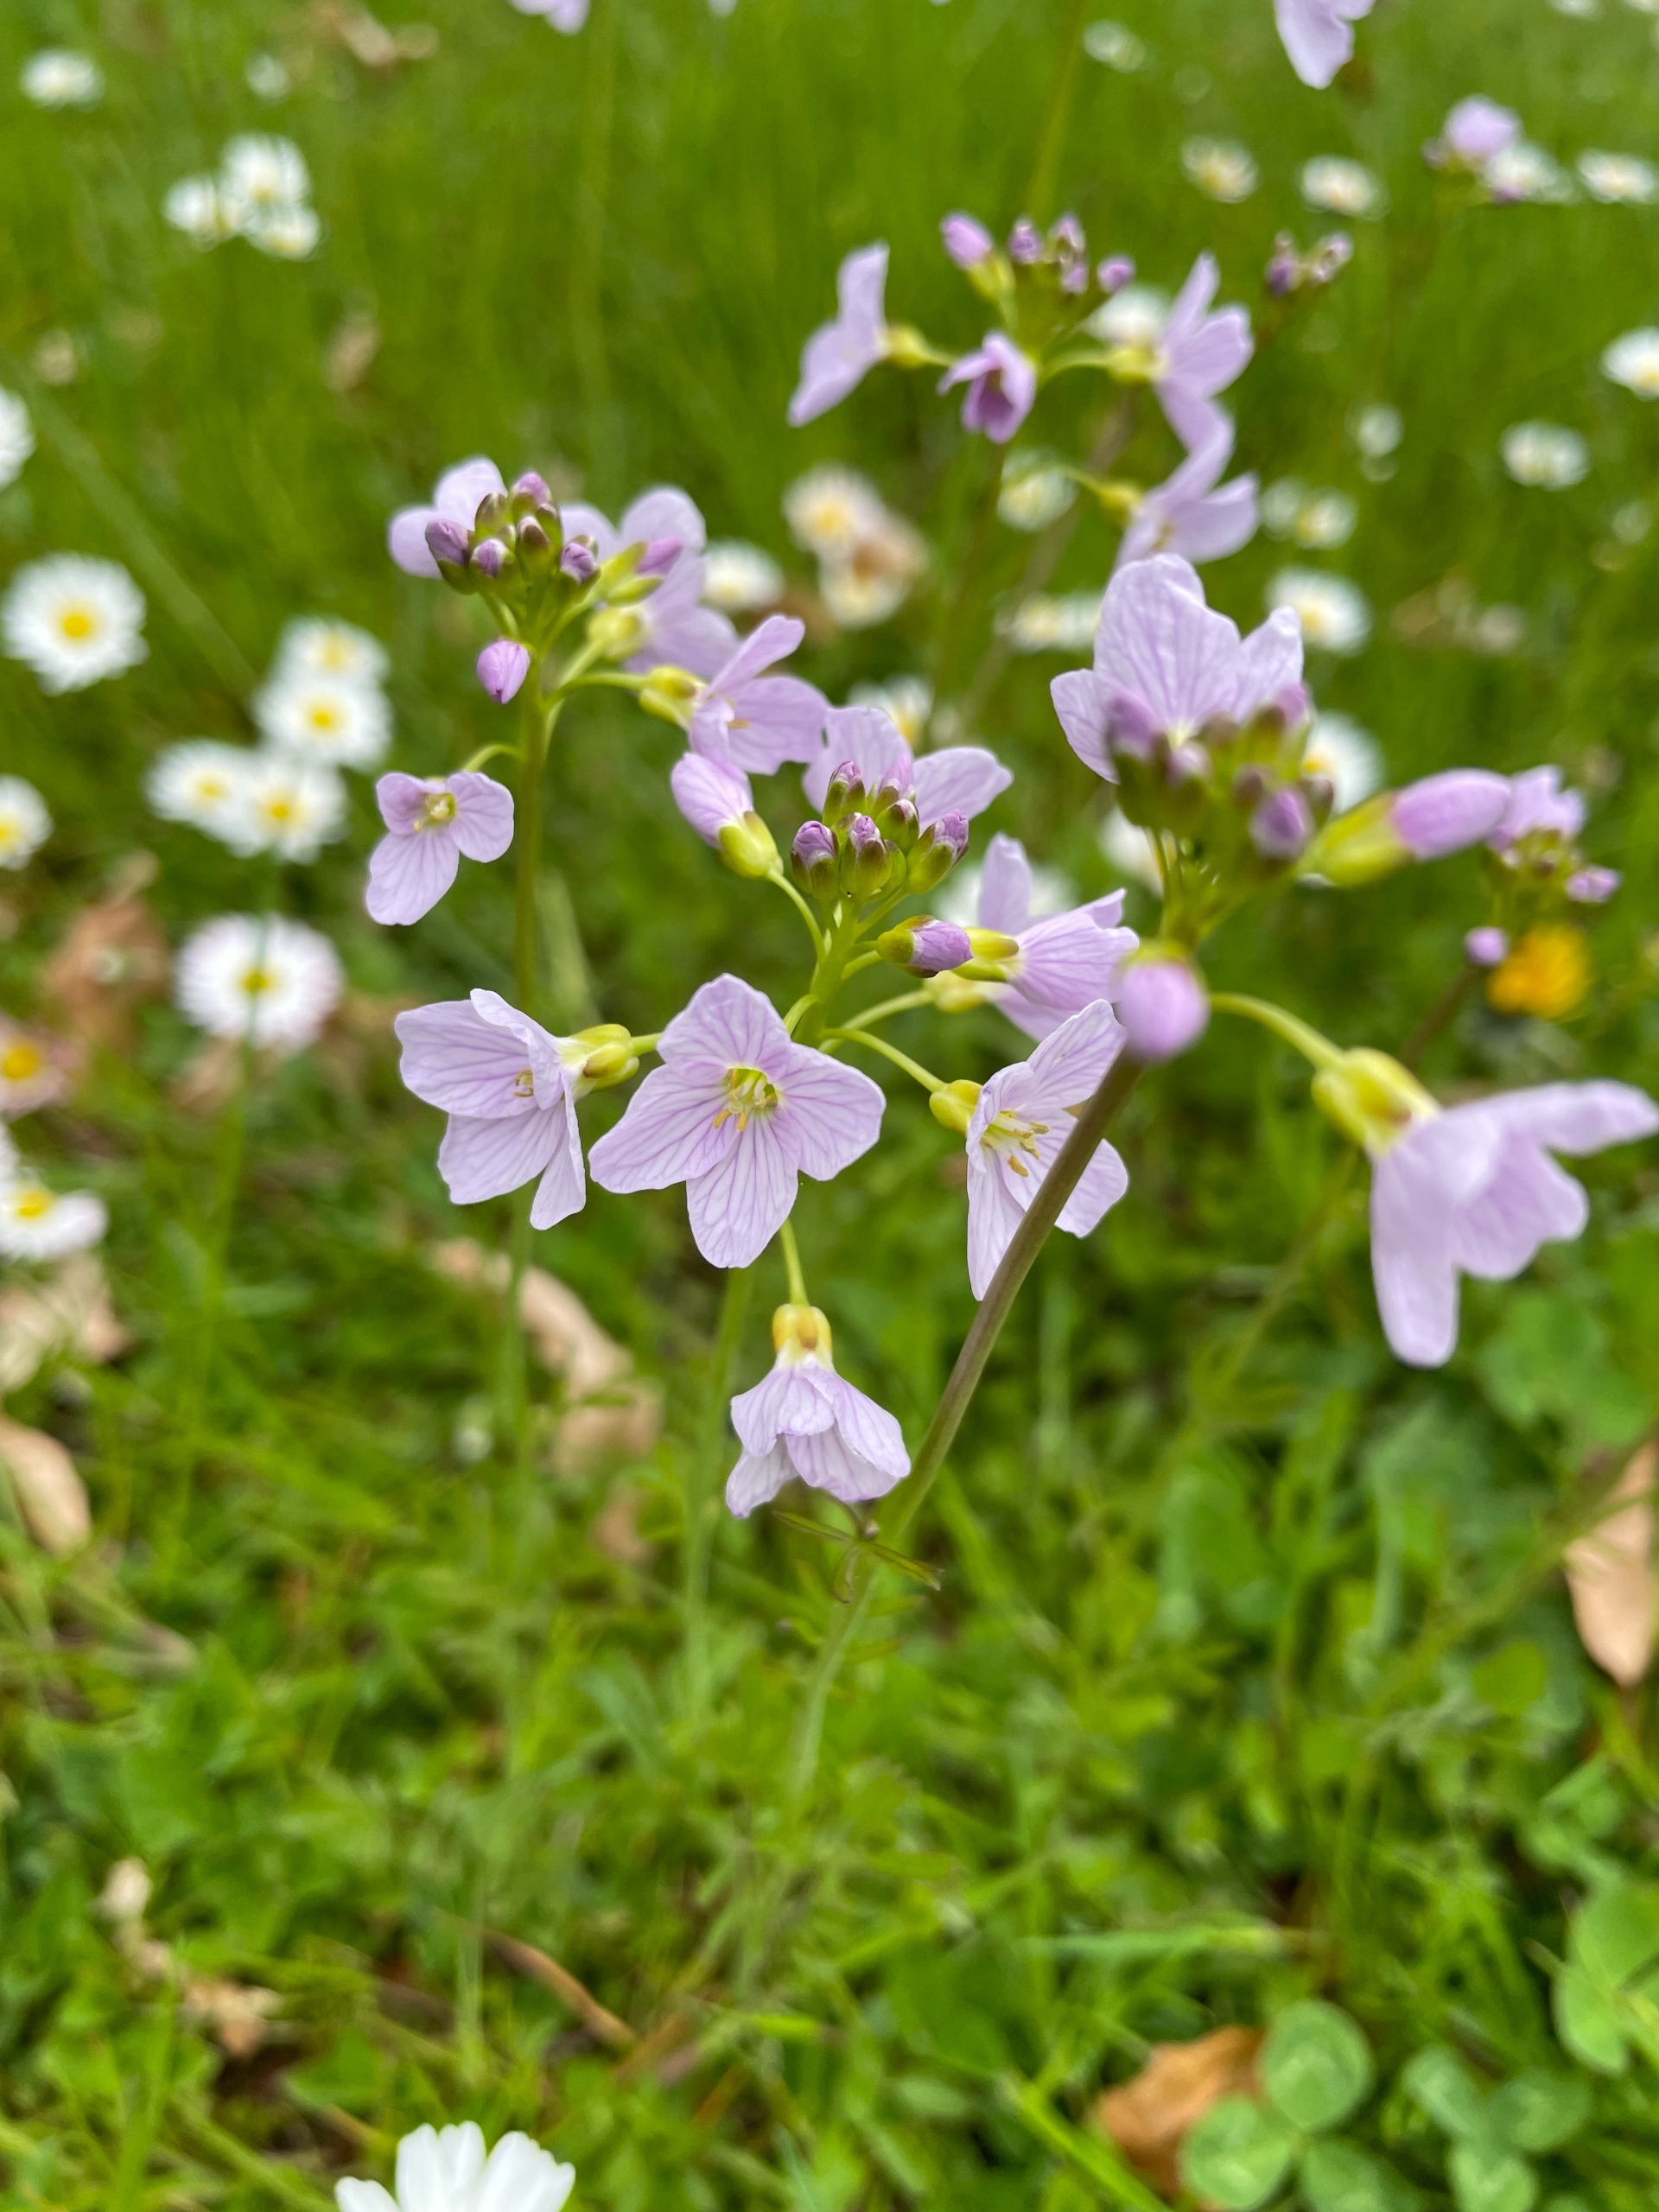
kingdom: Plantae
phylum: Tracheophyta
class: Magnoliopsida
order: Brassicales
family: Brassicaceae
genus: Cardamine
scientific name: Cardamine pratensis
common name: Engkarse
